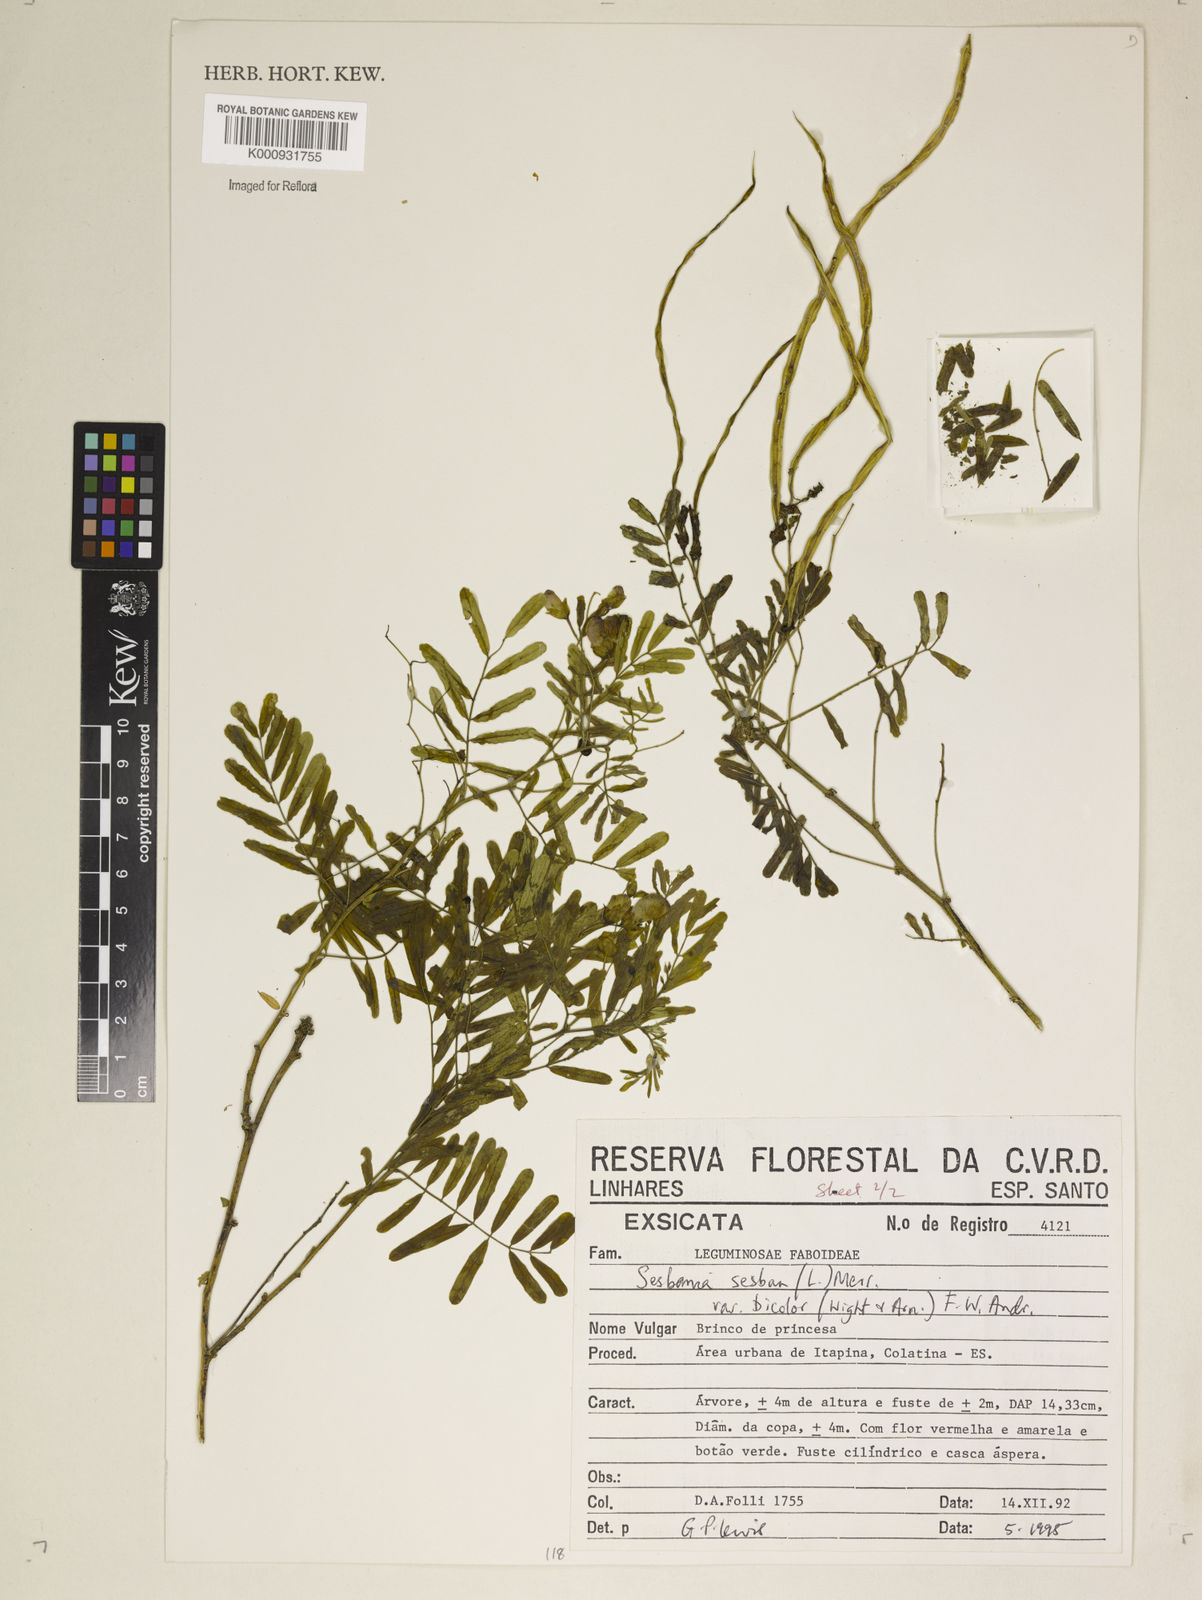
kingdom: Plantae
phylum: Tracheophyta
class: Magnoliopsida
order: Fabales
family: Fabaceae
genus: Sesbania
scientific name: Sesbania
